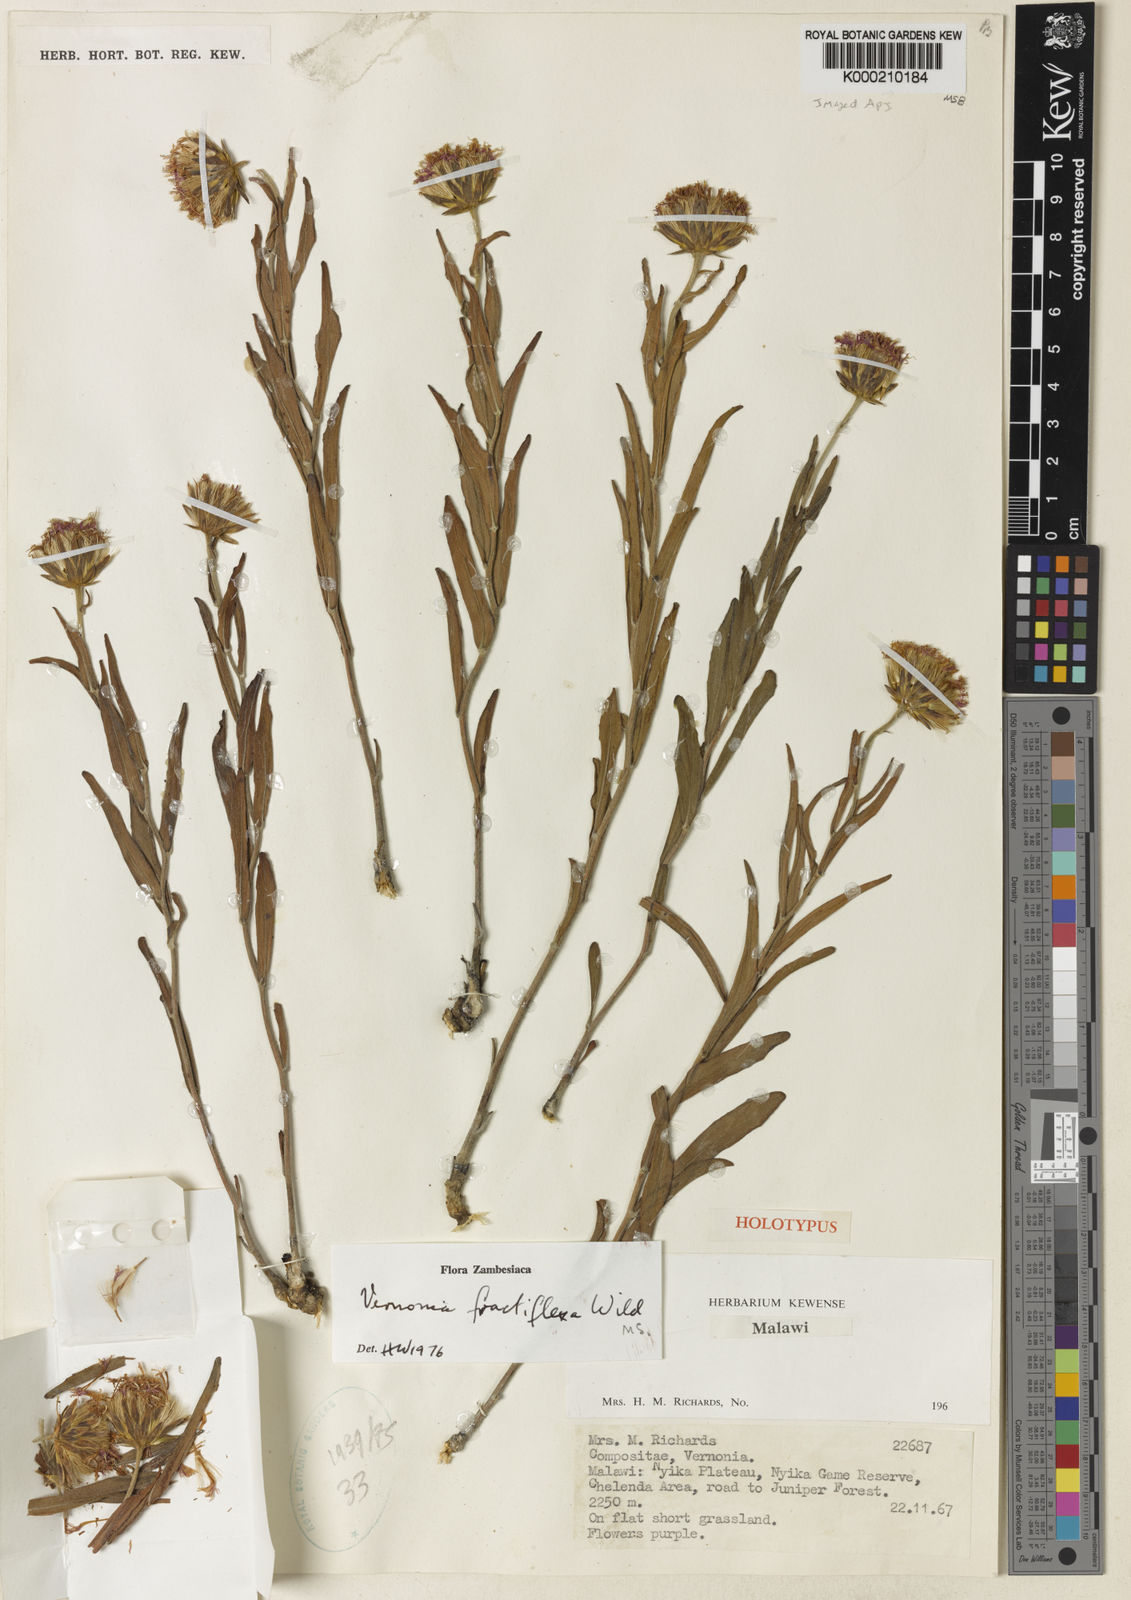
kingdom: Plantae
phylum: Tracheophyta
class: Magnoliopsida
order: Asterales
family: Asteraceae
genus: Vernonia
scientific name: Vernonia fractiflexa
